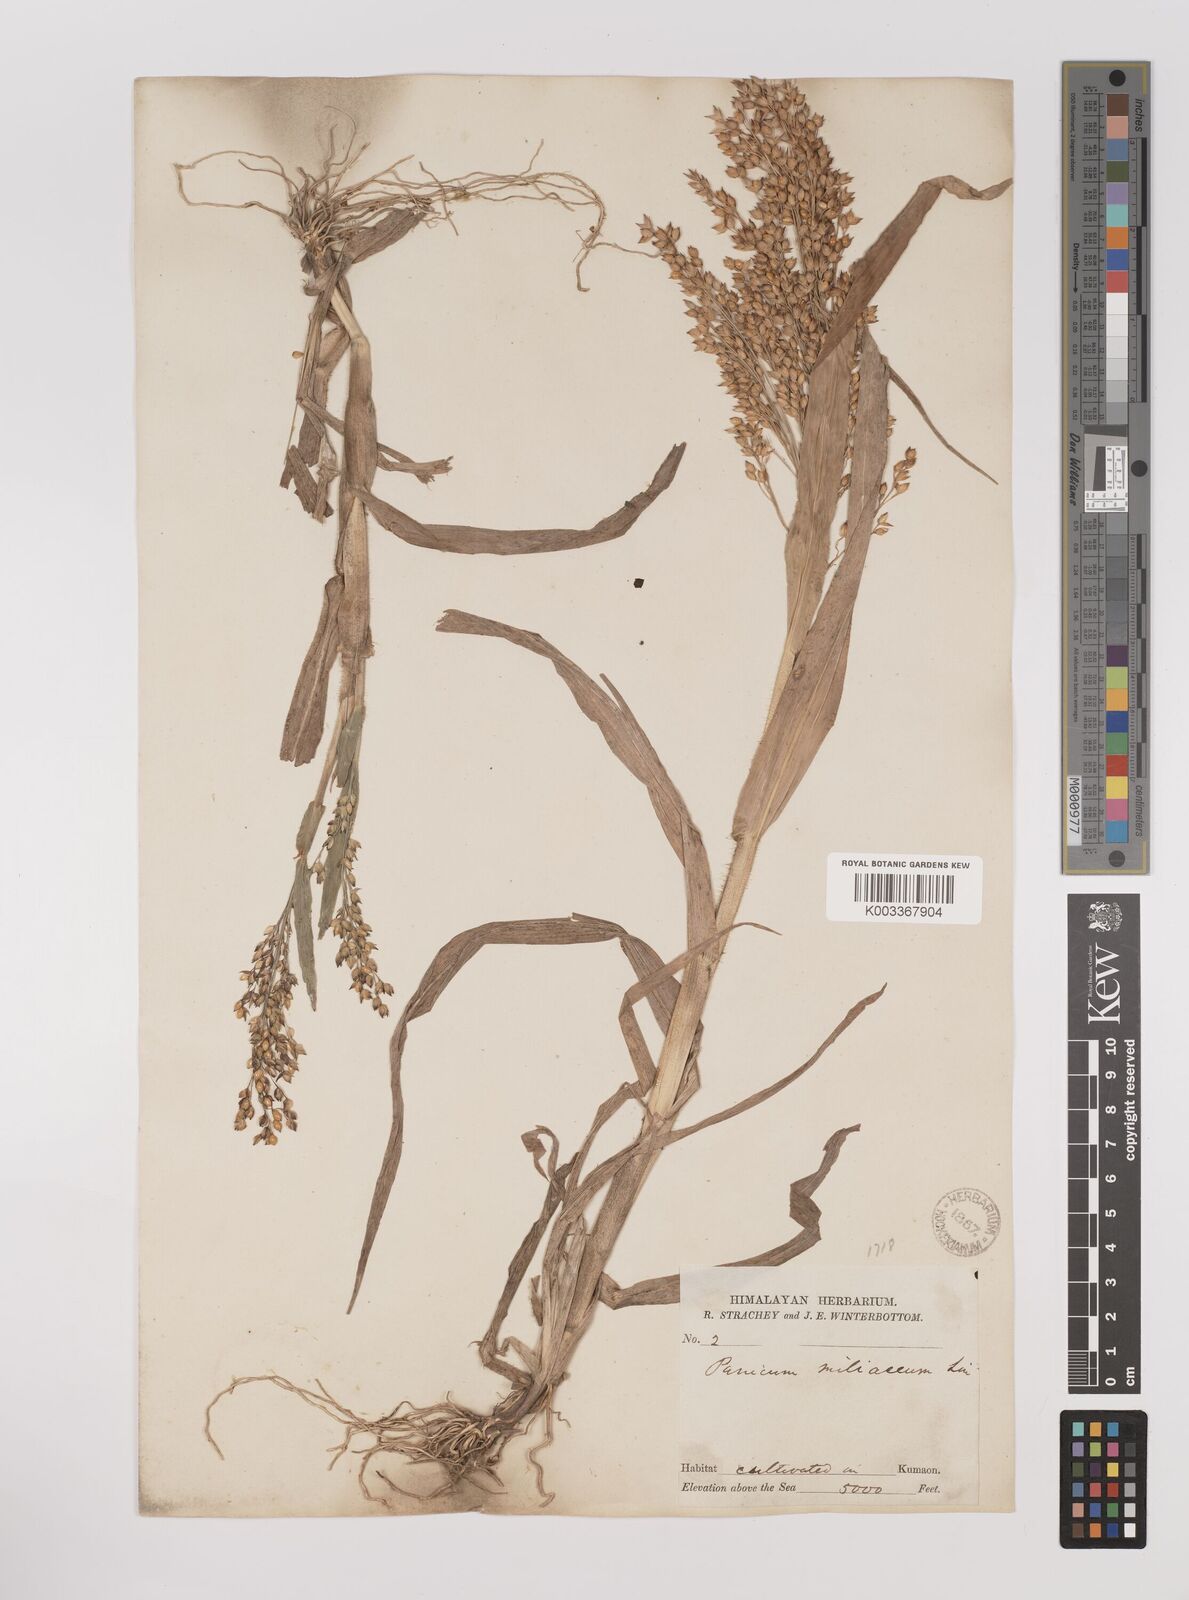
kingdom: Plantae
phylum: Tracheophyta
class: Liliopsida
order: Poales
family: Poaceae
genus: Panicum
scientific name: Panicum miliaceum
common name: Common millet
